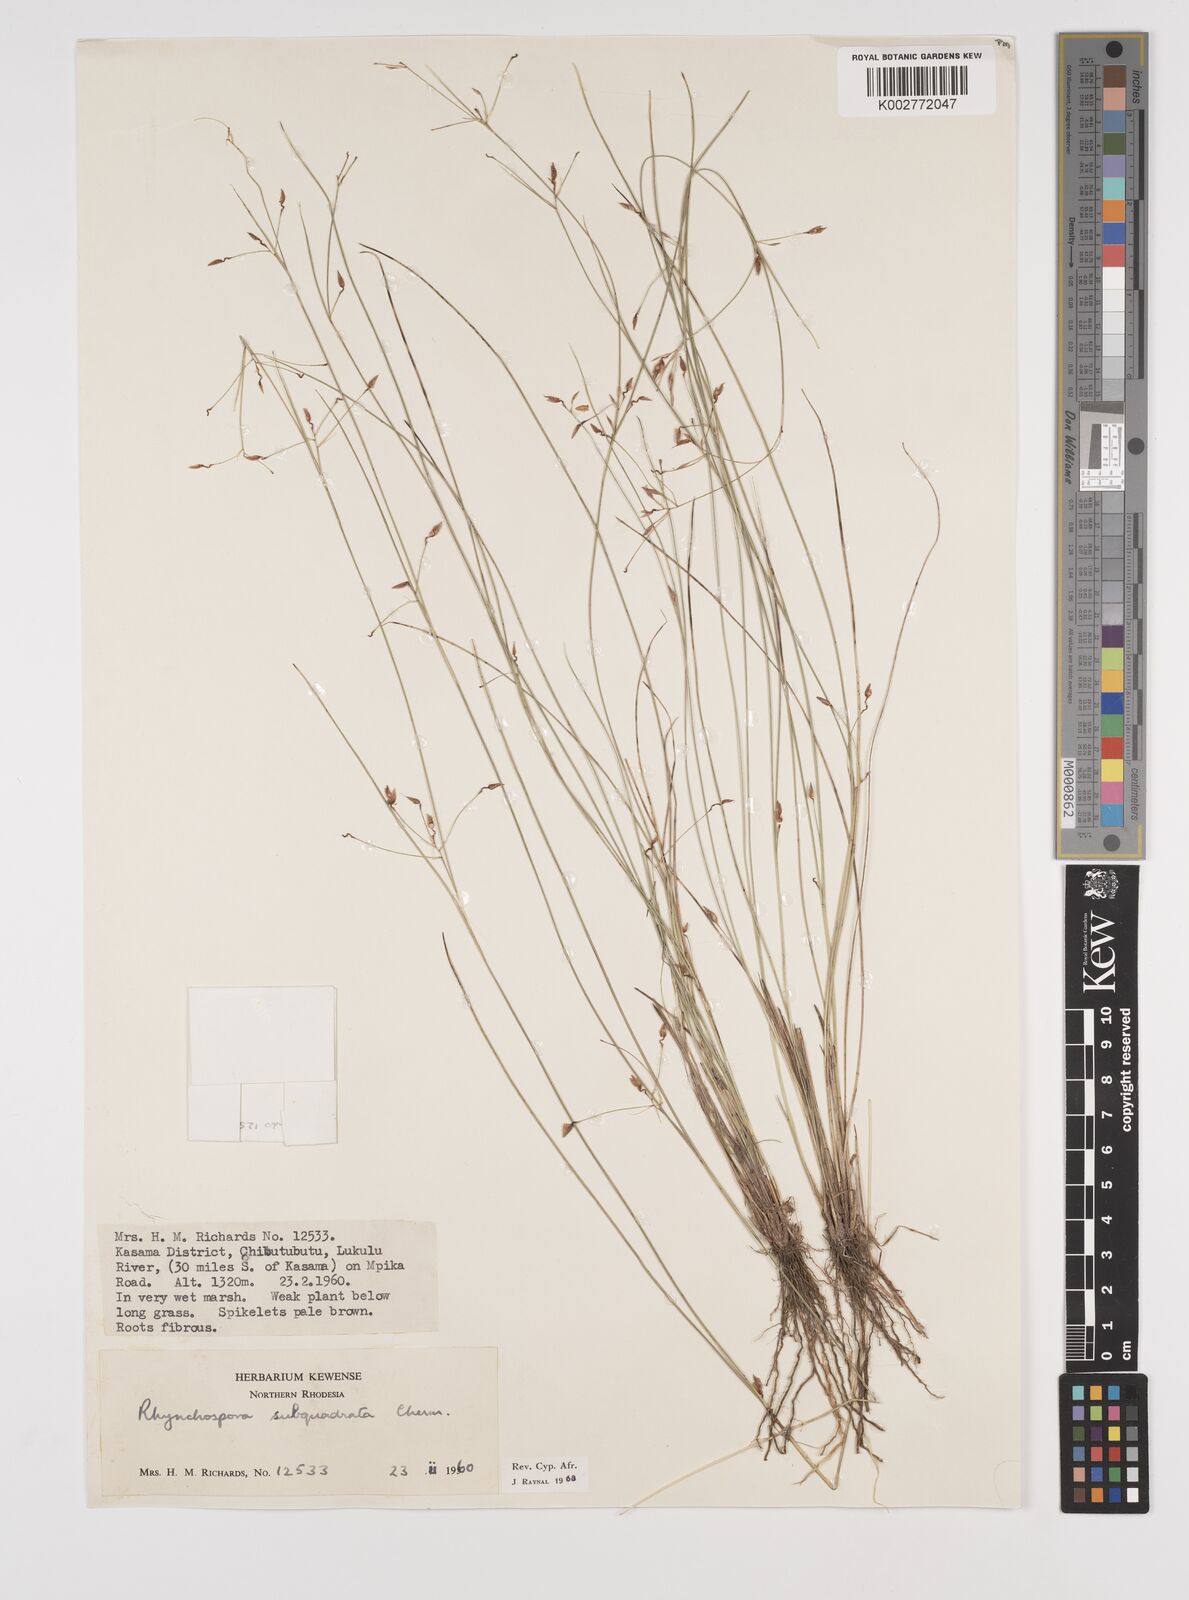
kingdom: Plantae
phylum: Tracheophyta
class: Liliopsida
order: Poales
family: Cyperaceae
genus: Rhynchospora
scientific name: Rhynchospora gracillima
